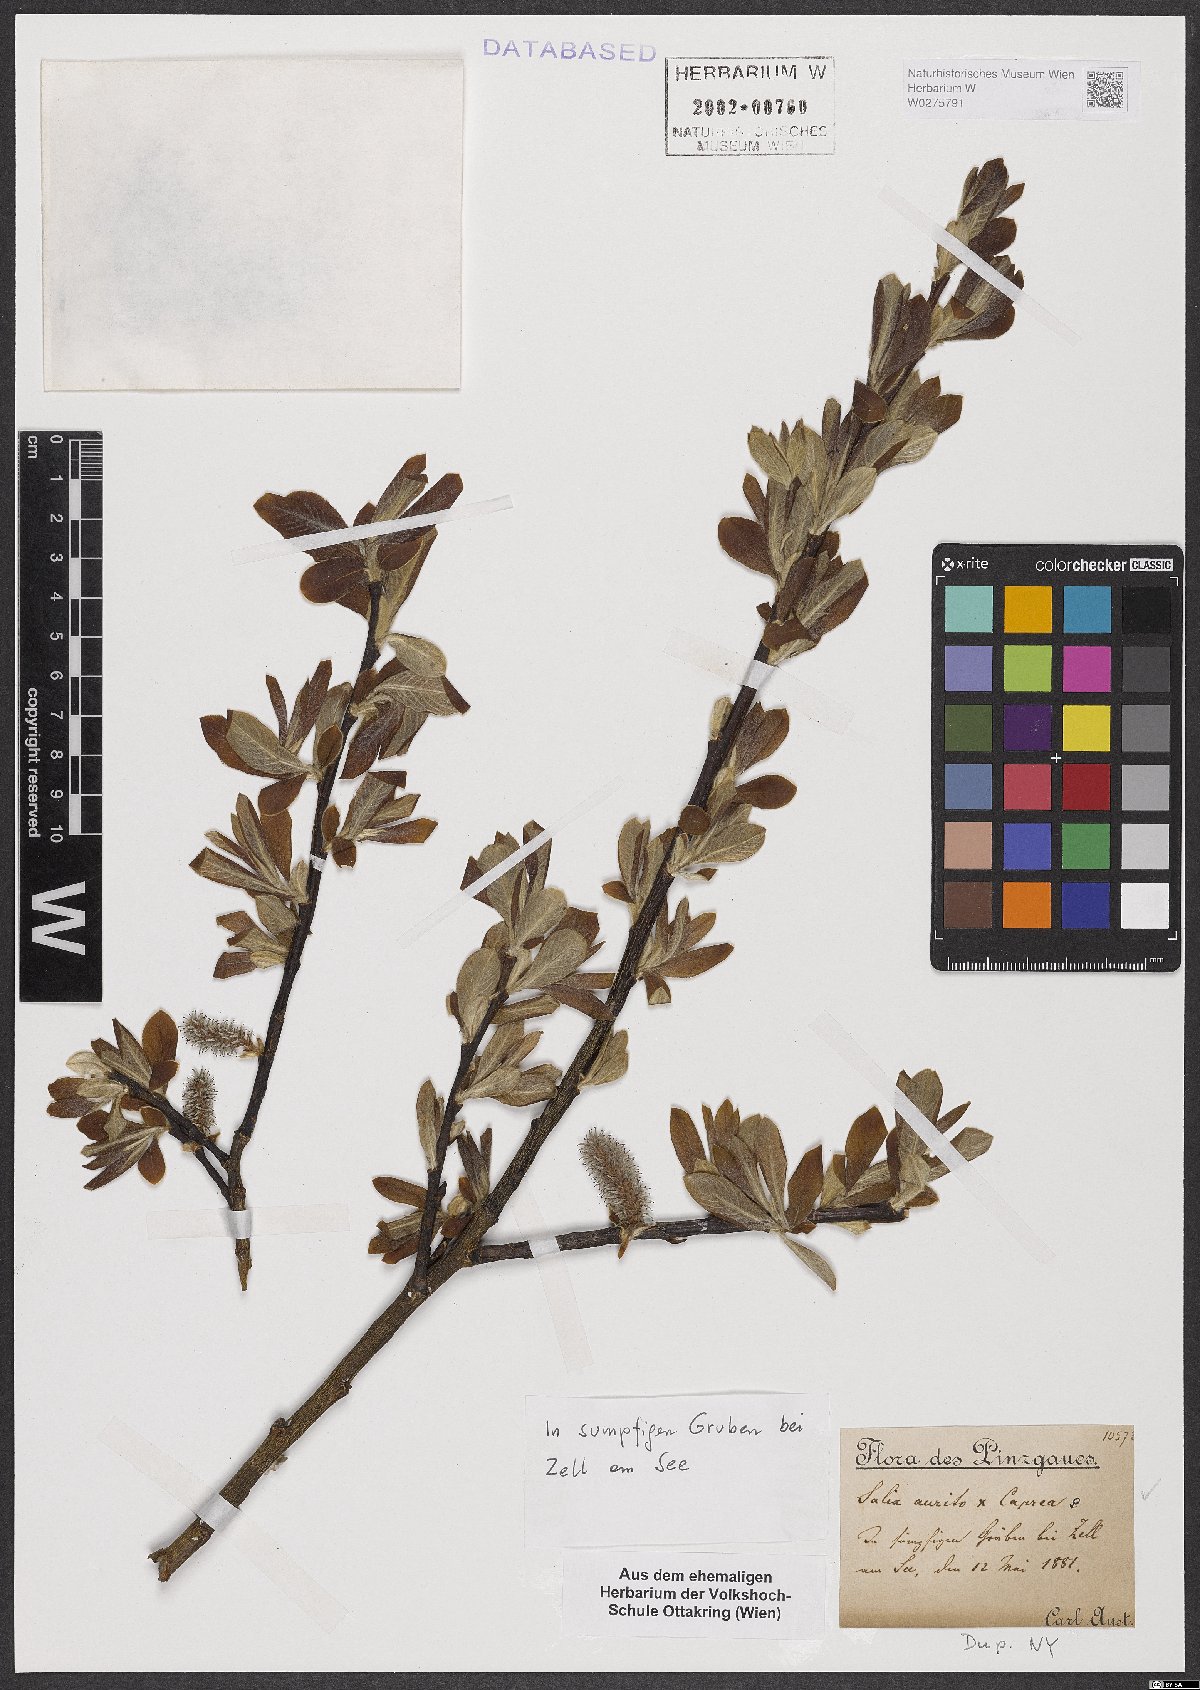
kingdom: Plantae
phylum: Tracheophyta
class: Magnoliopsida
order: Malpighiales
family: Salicaceae
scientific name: Salicaceae
